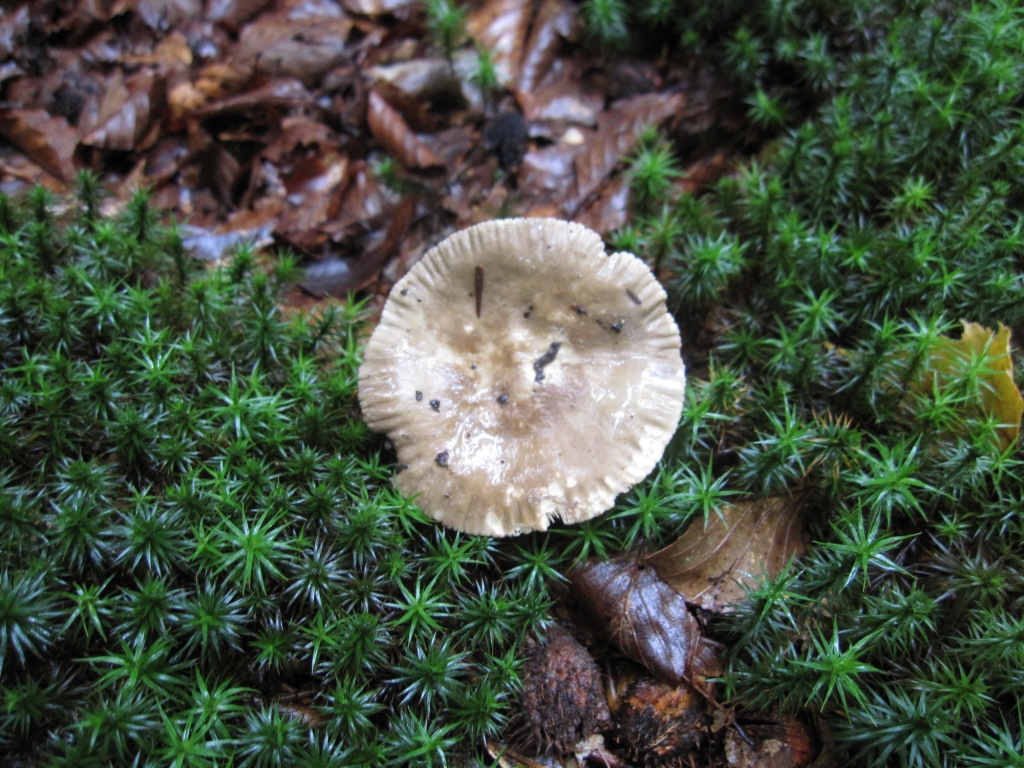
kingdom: Fungi
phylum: Basidiomycota
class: Agaricomycetes
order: Russulales
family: Russulaceae
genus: Lactarius
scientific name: Lactarius ruginosus
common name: gråbrun mælkehat
